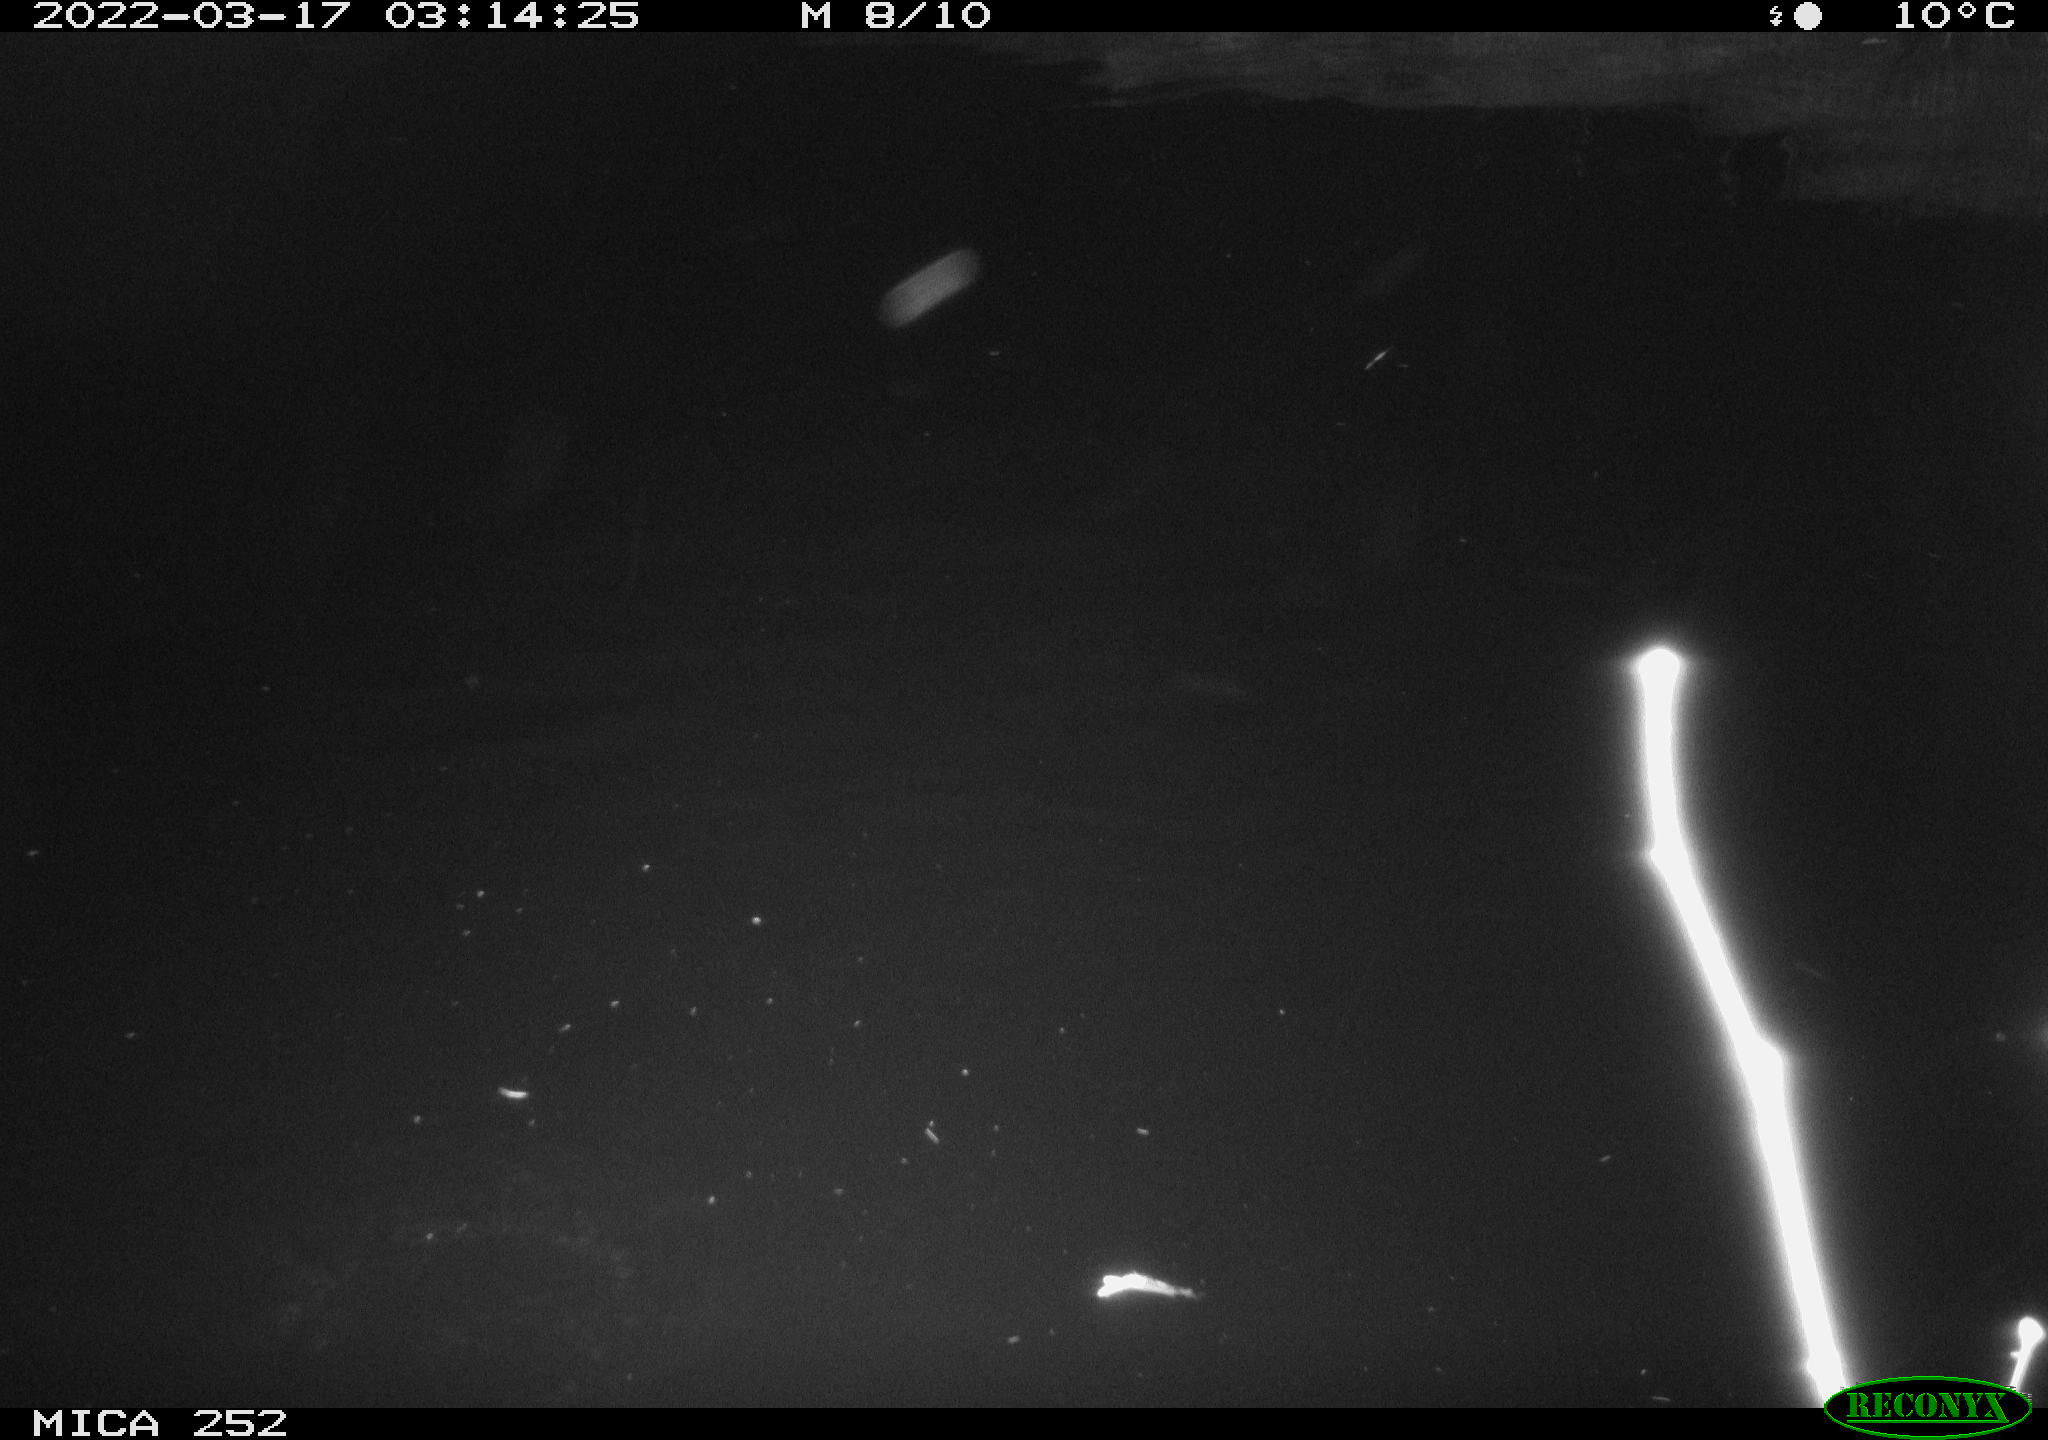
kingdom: Animalia
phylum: Chordata
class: Mammalia
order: Rodentia
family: Castoridae
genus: Castor
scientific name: Castor fiber
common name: Eurasian beaver
